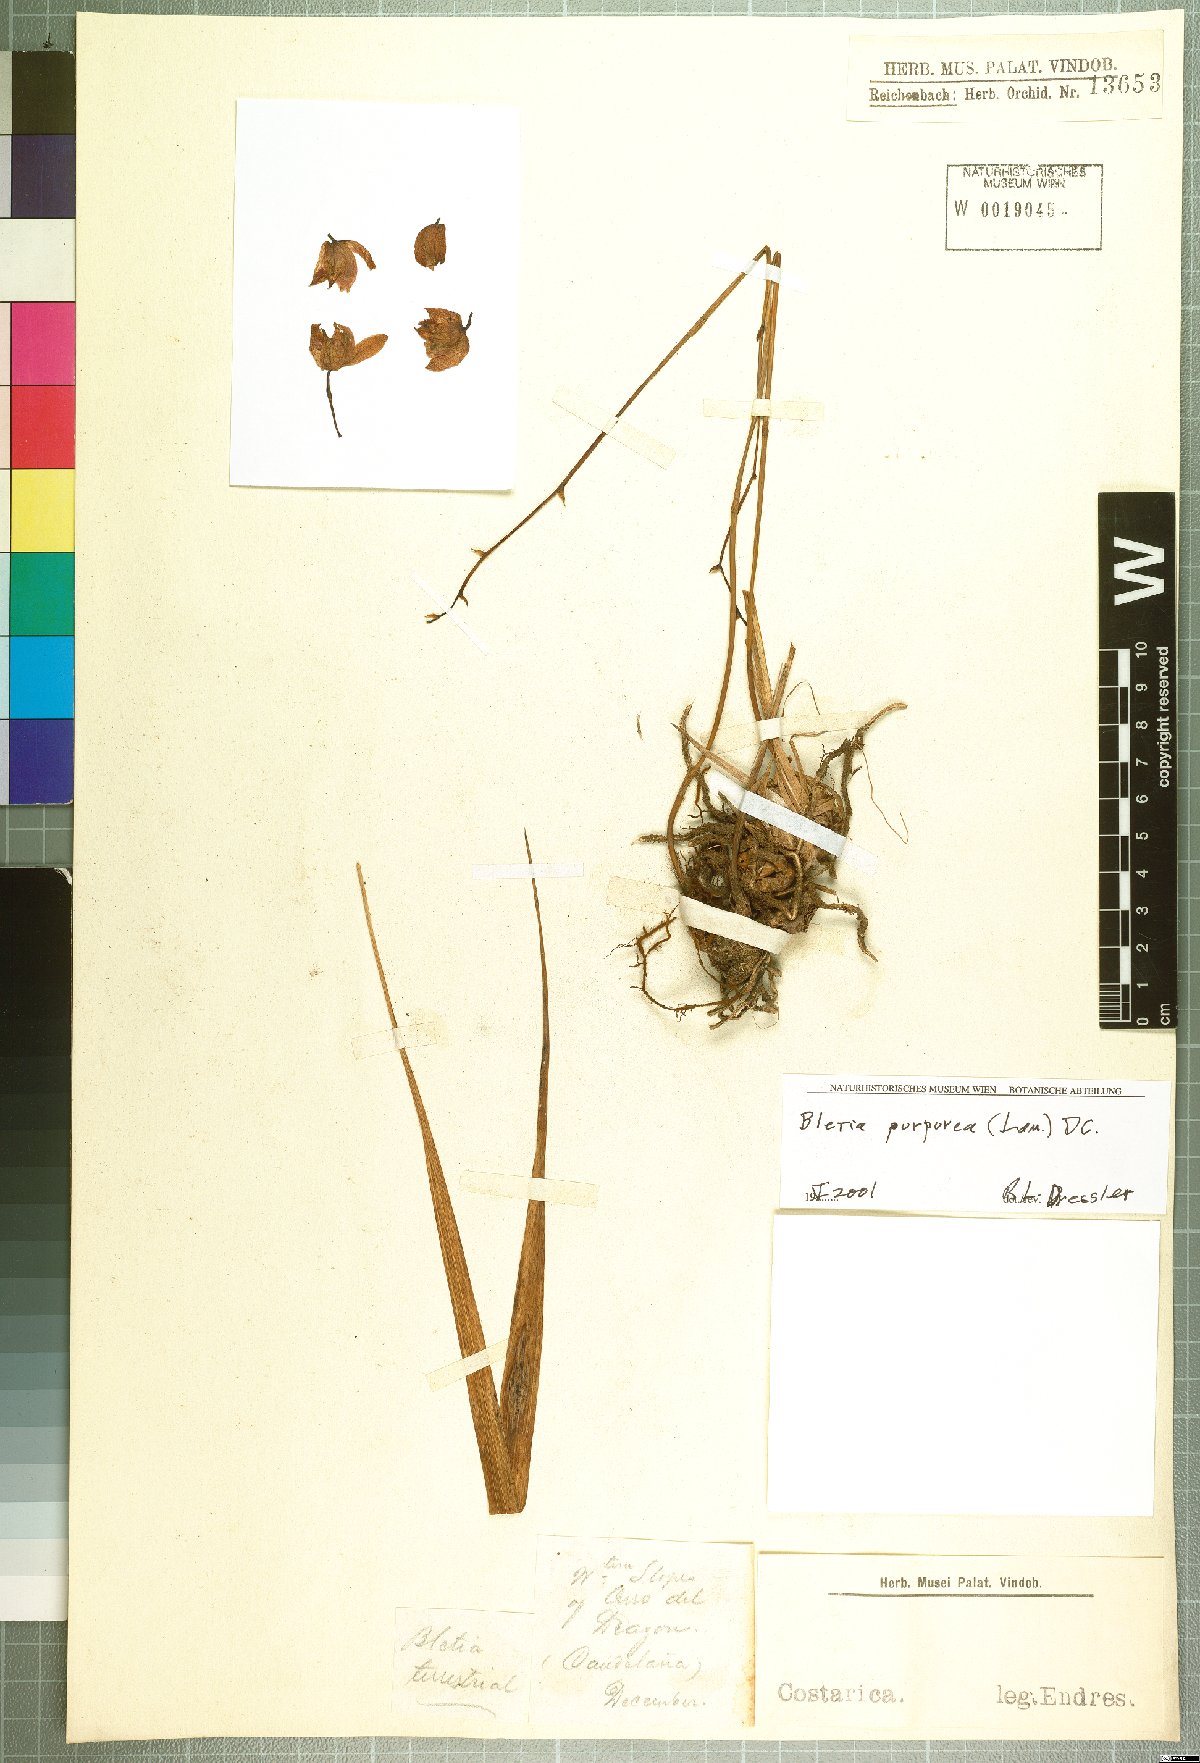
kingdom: Plantae
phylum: Tracheophyta
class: Liliopsida
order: Asparagales
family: Orchidaceae
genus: Bletia
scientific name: Bletia purpurea
